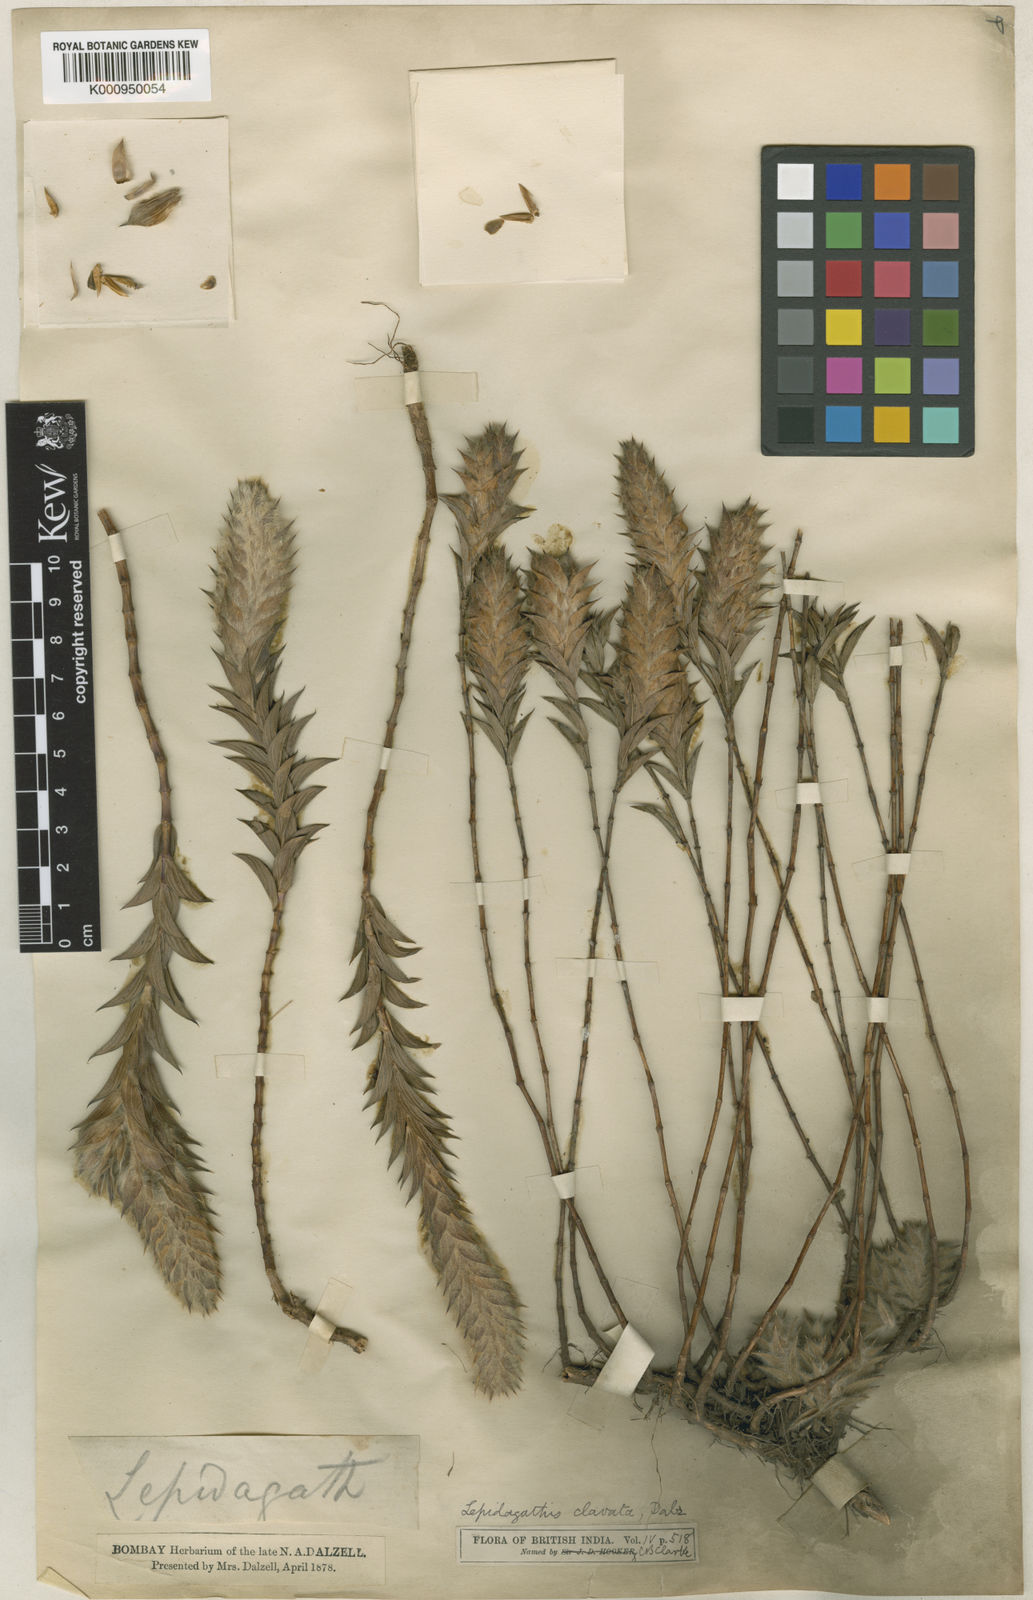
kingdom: Plantae
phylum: Tracheophyta
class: Magnoliopsida
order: Lamiales
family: Acanthaceae
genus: Lepidagathis
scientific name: Lepidagathis clavata
